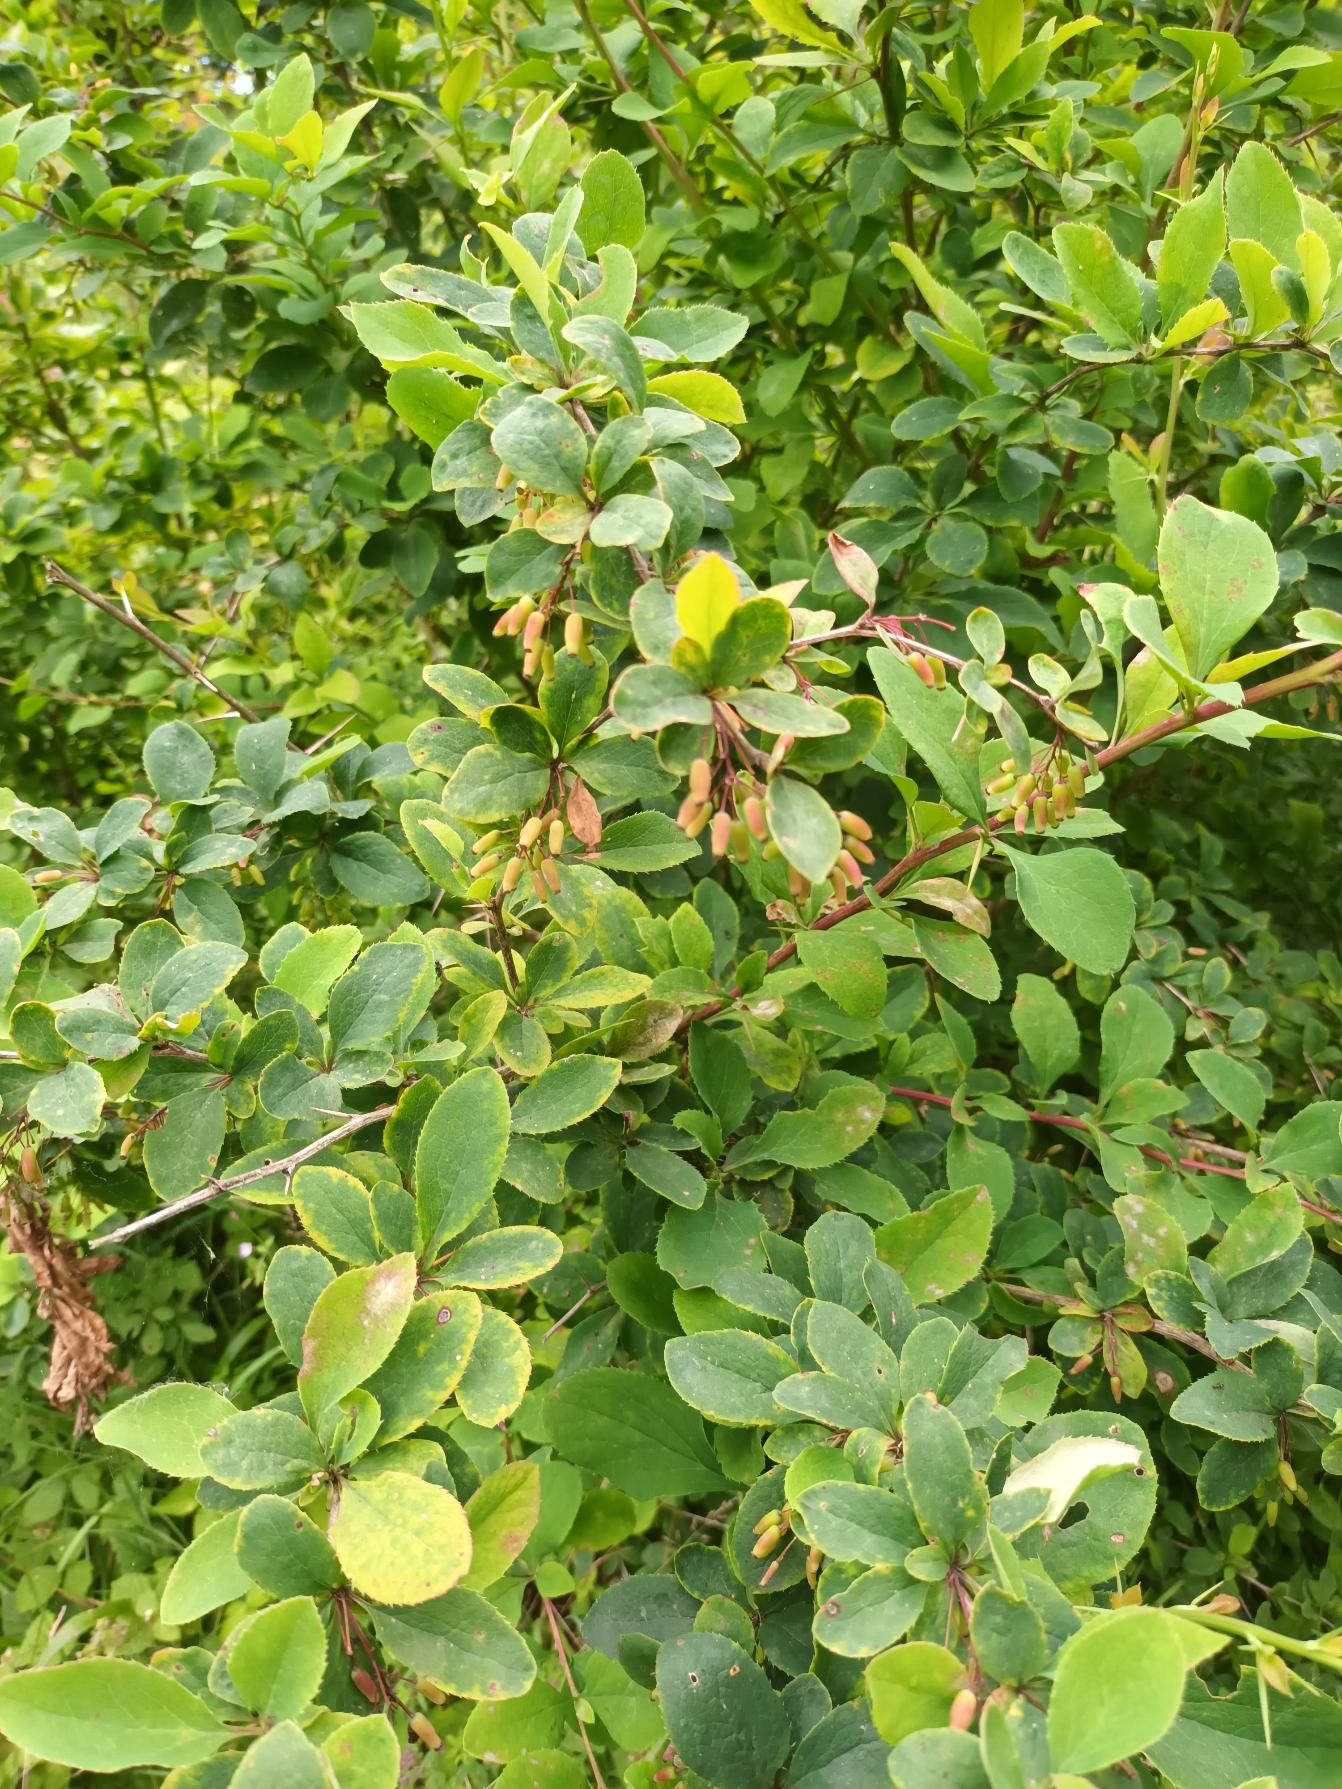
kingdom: Plantae
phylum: Tracheophyta
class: Magnoliopsida
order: Ranunculales
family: Berberidaceae
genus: Berberis
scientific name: Berberis vulgaris
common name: Almindelig berberis
